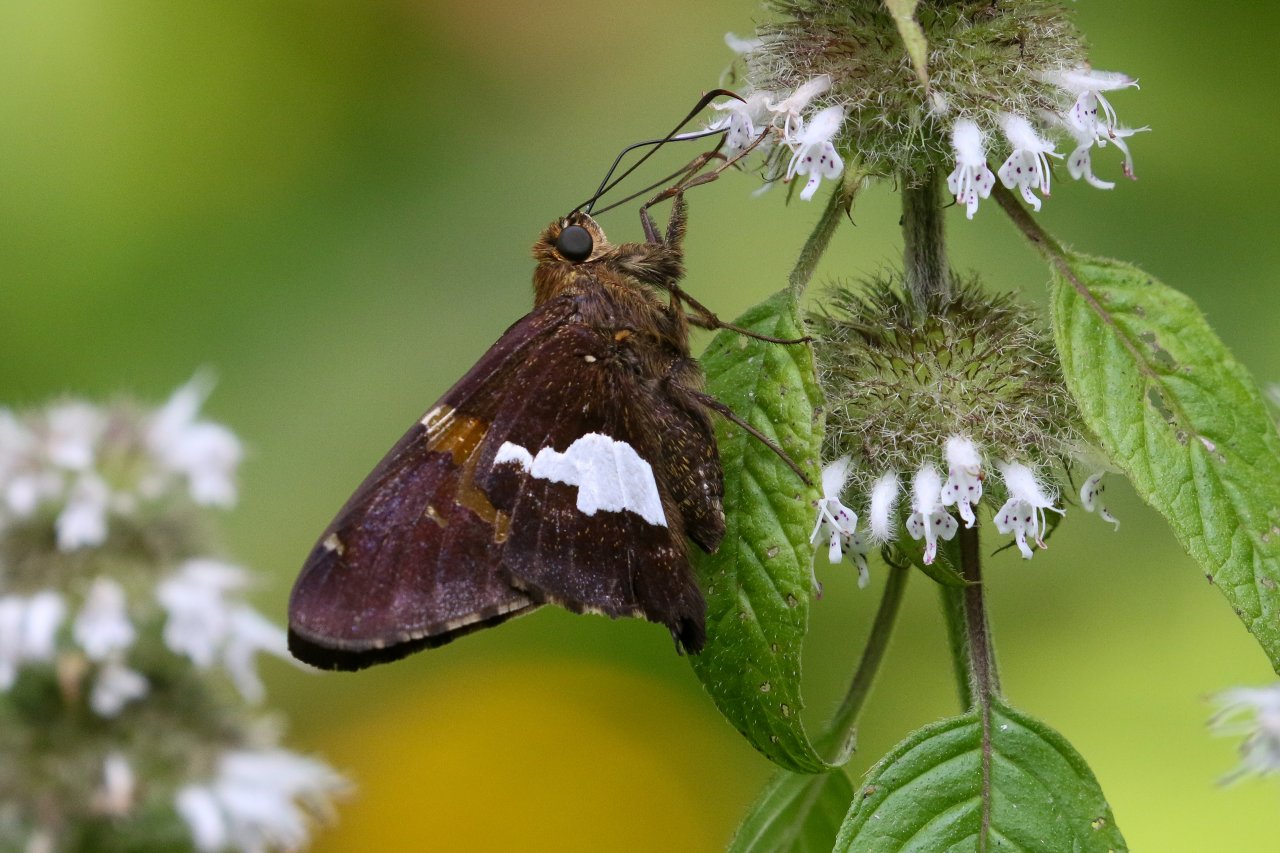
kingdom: Animalia
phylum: Arthropoda
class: Insecta
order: Lepidoptera
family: Hesperiidae
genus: Epargyreus
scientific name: Epargyreus clarus
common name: Silver-spotted Skipper
